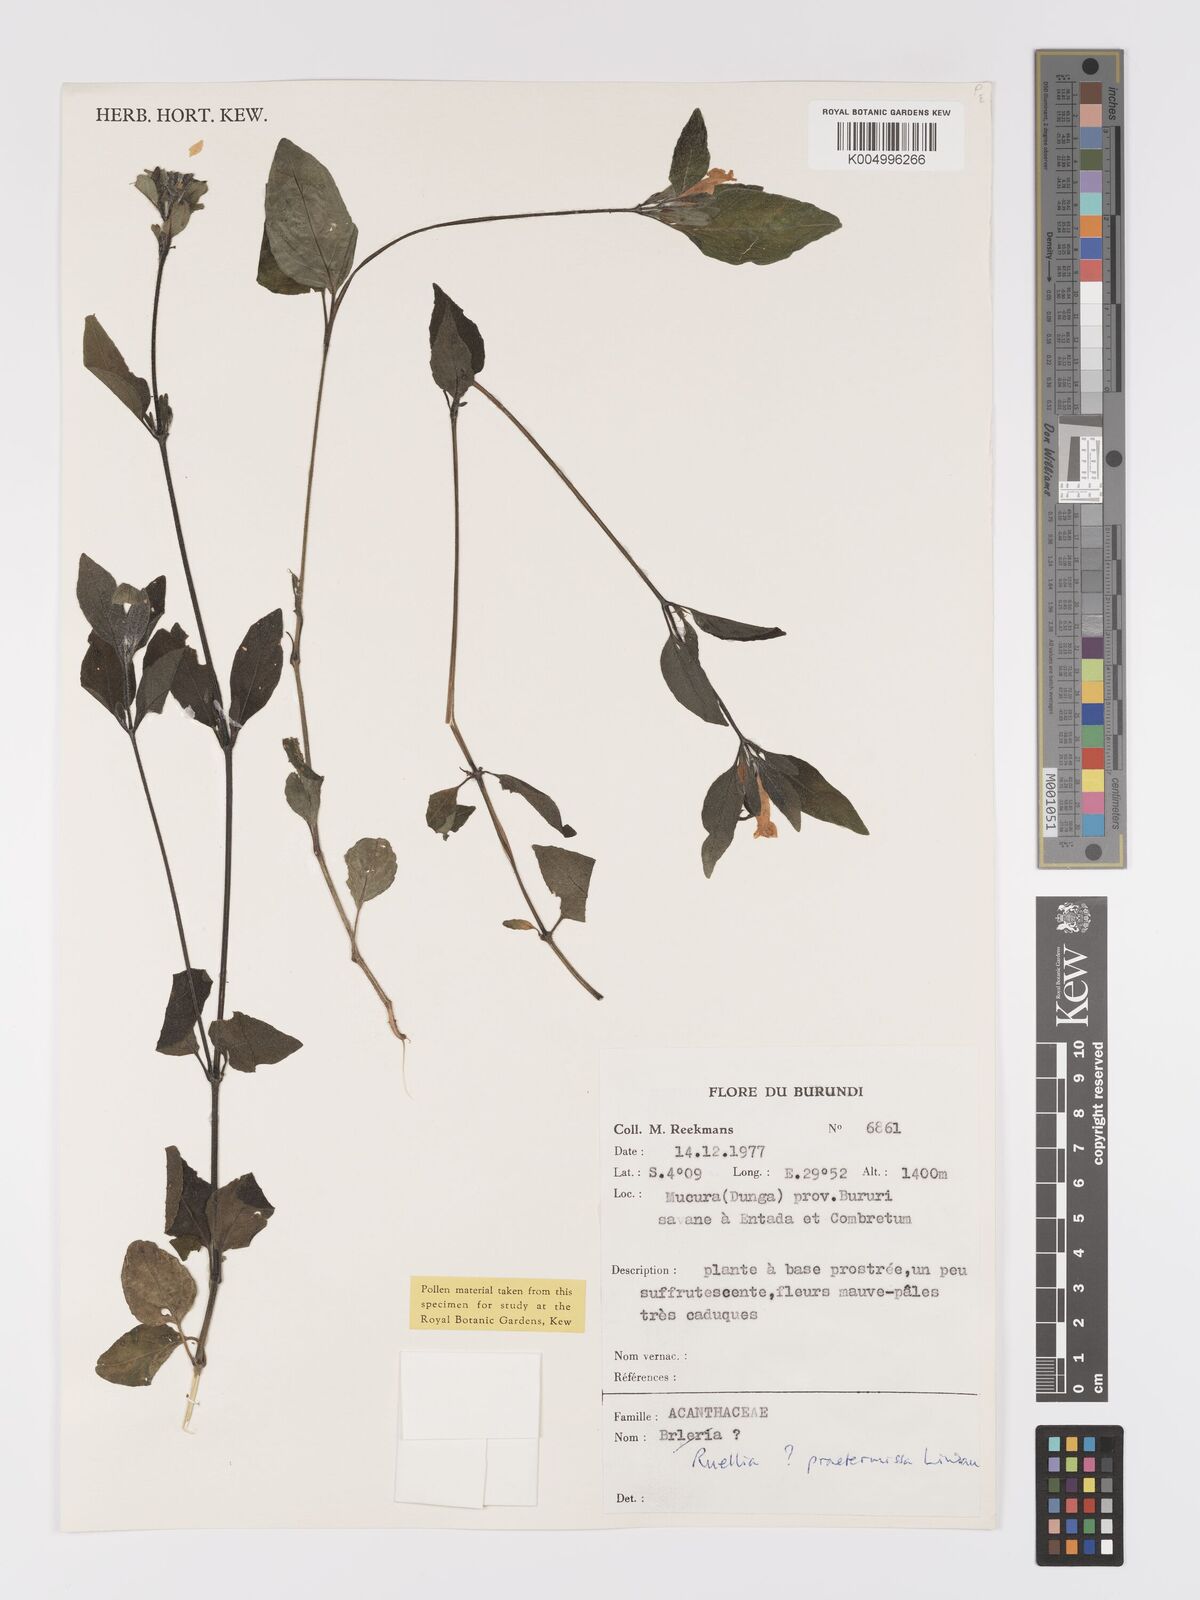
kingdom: Plantae
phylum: Tracheophyta
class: Magnoliopsida
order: Lamiales
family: Acanthaceae
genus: Ruellia
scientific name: Ruellia praetermissa
